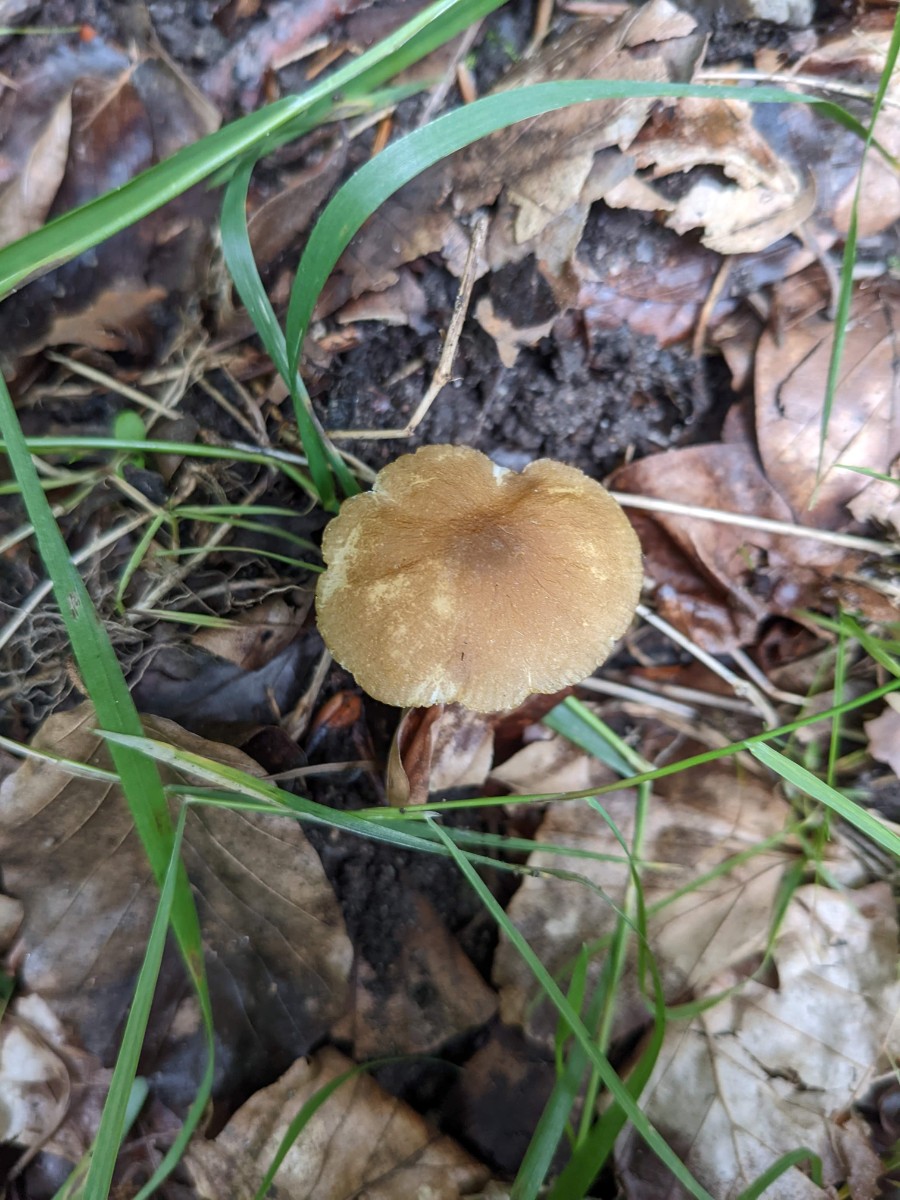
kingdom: Fungi
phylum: Basidiomycota
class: Agaricomycetes
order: Agaricales
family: Pluteaceae
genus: Pluteus
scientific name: Pluteus romellii
